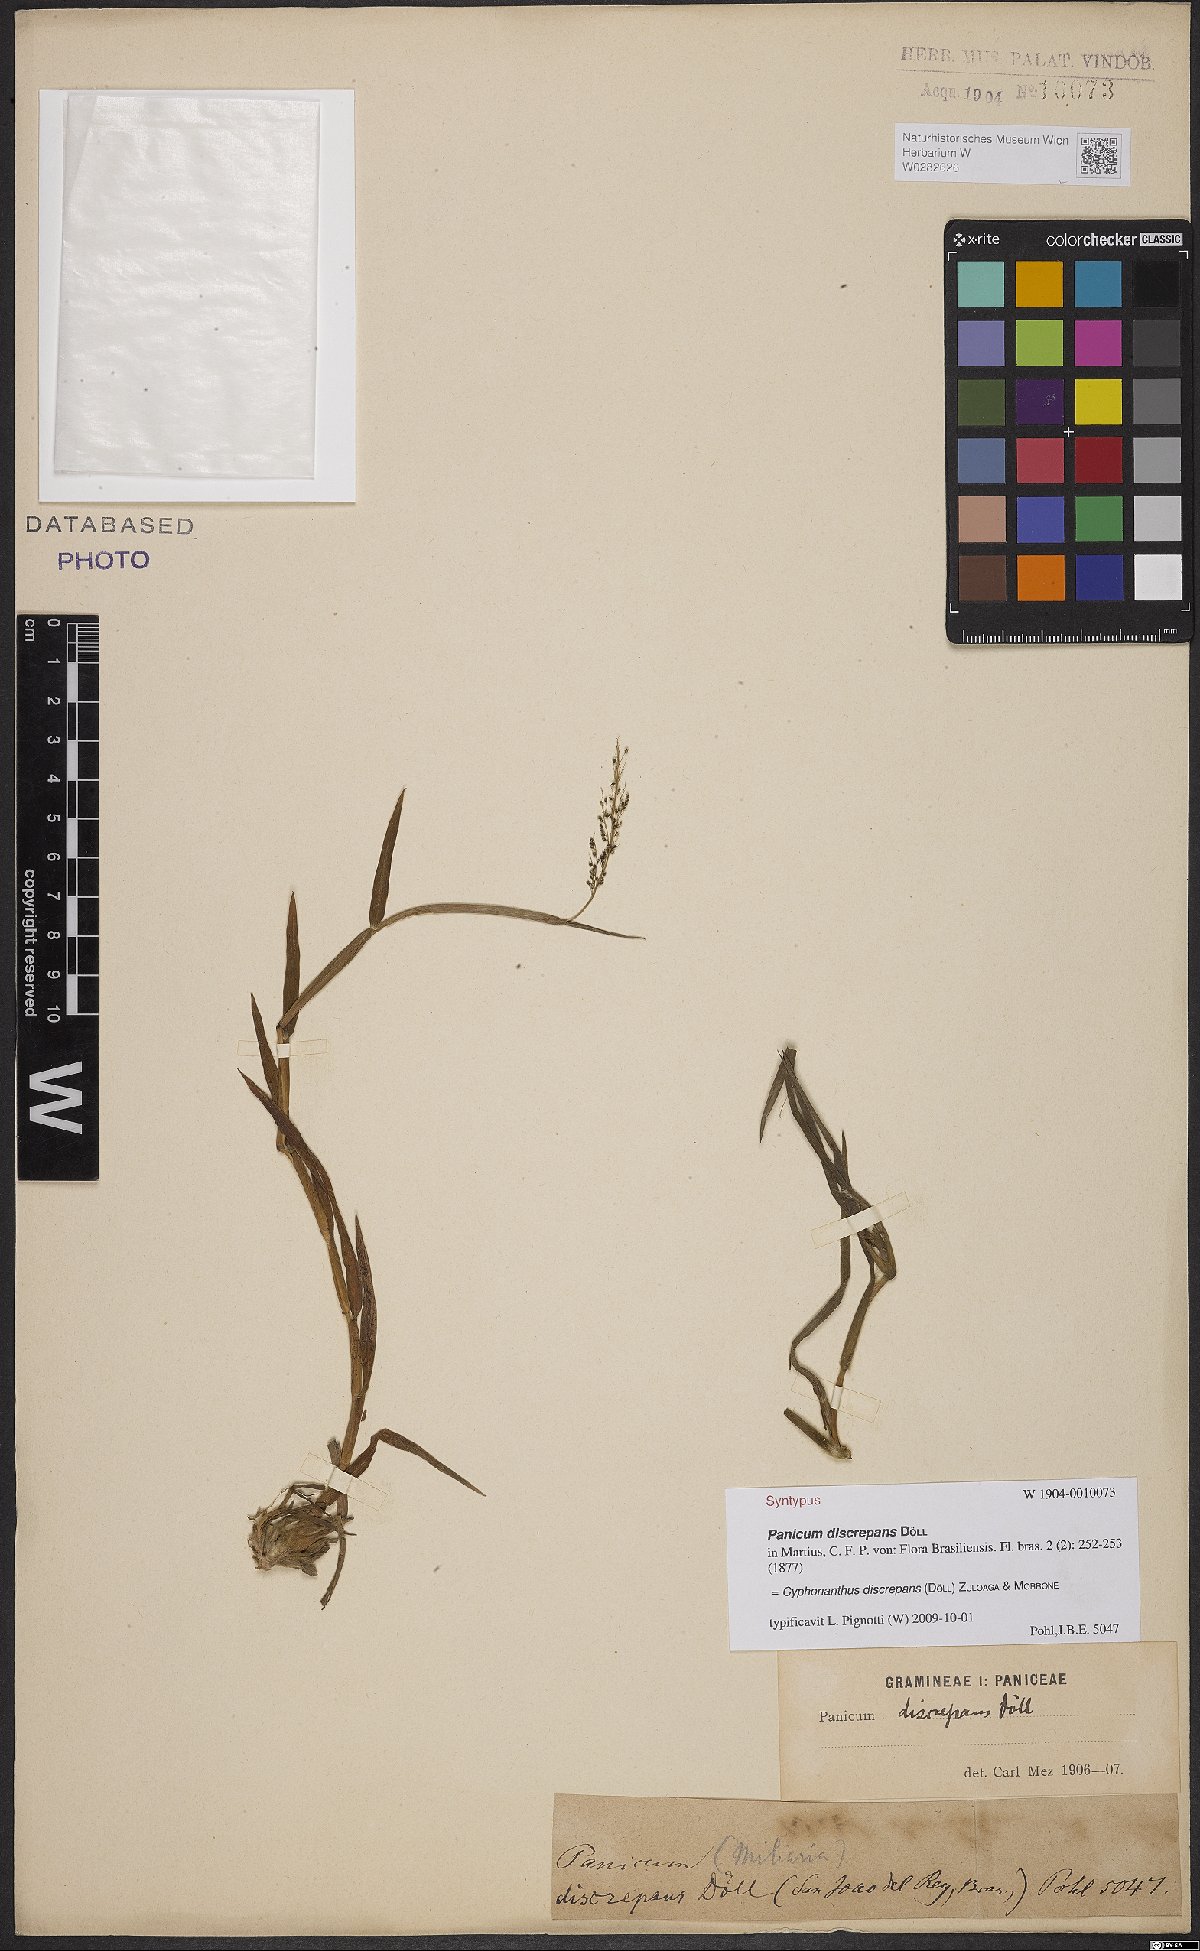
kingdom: Plantae
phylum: Tracheophyta
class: Liliopsida
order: Poales
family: Poaceae
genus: Cyphonanthus
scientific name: Cyphonanthus discrepans
